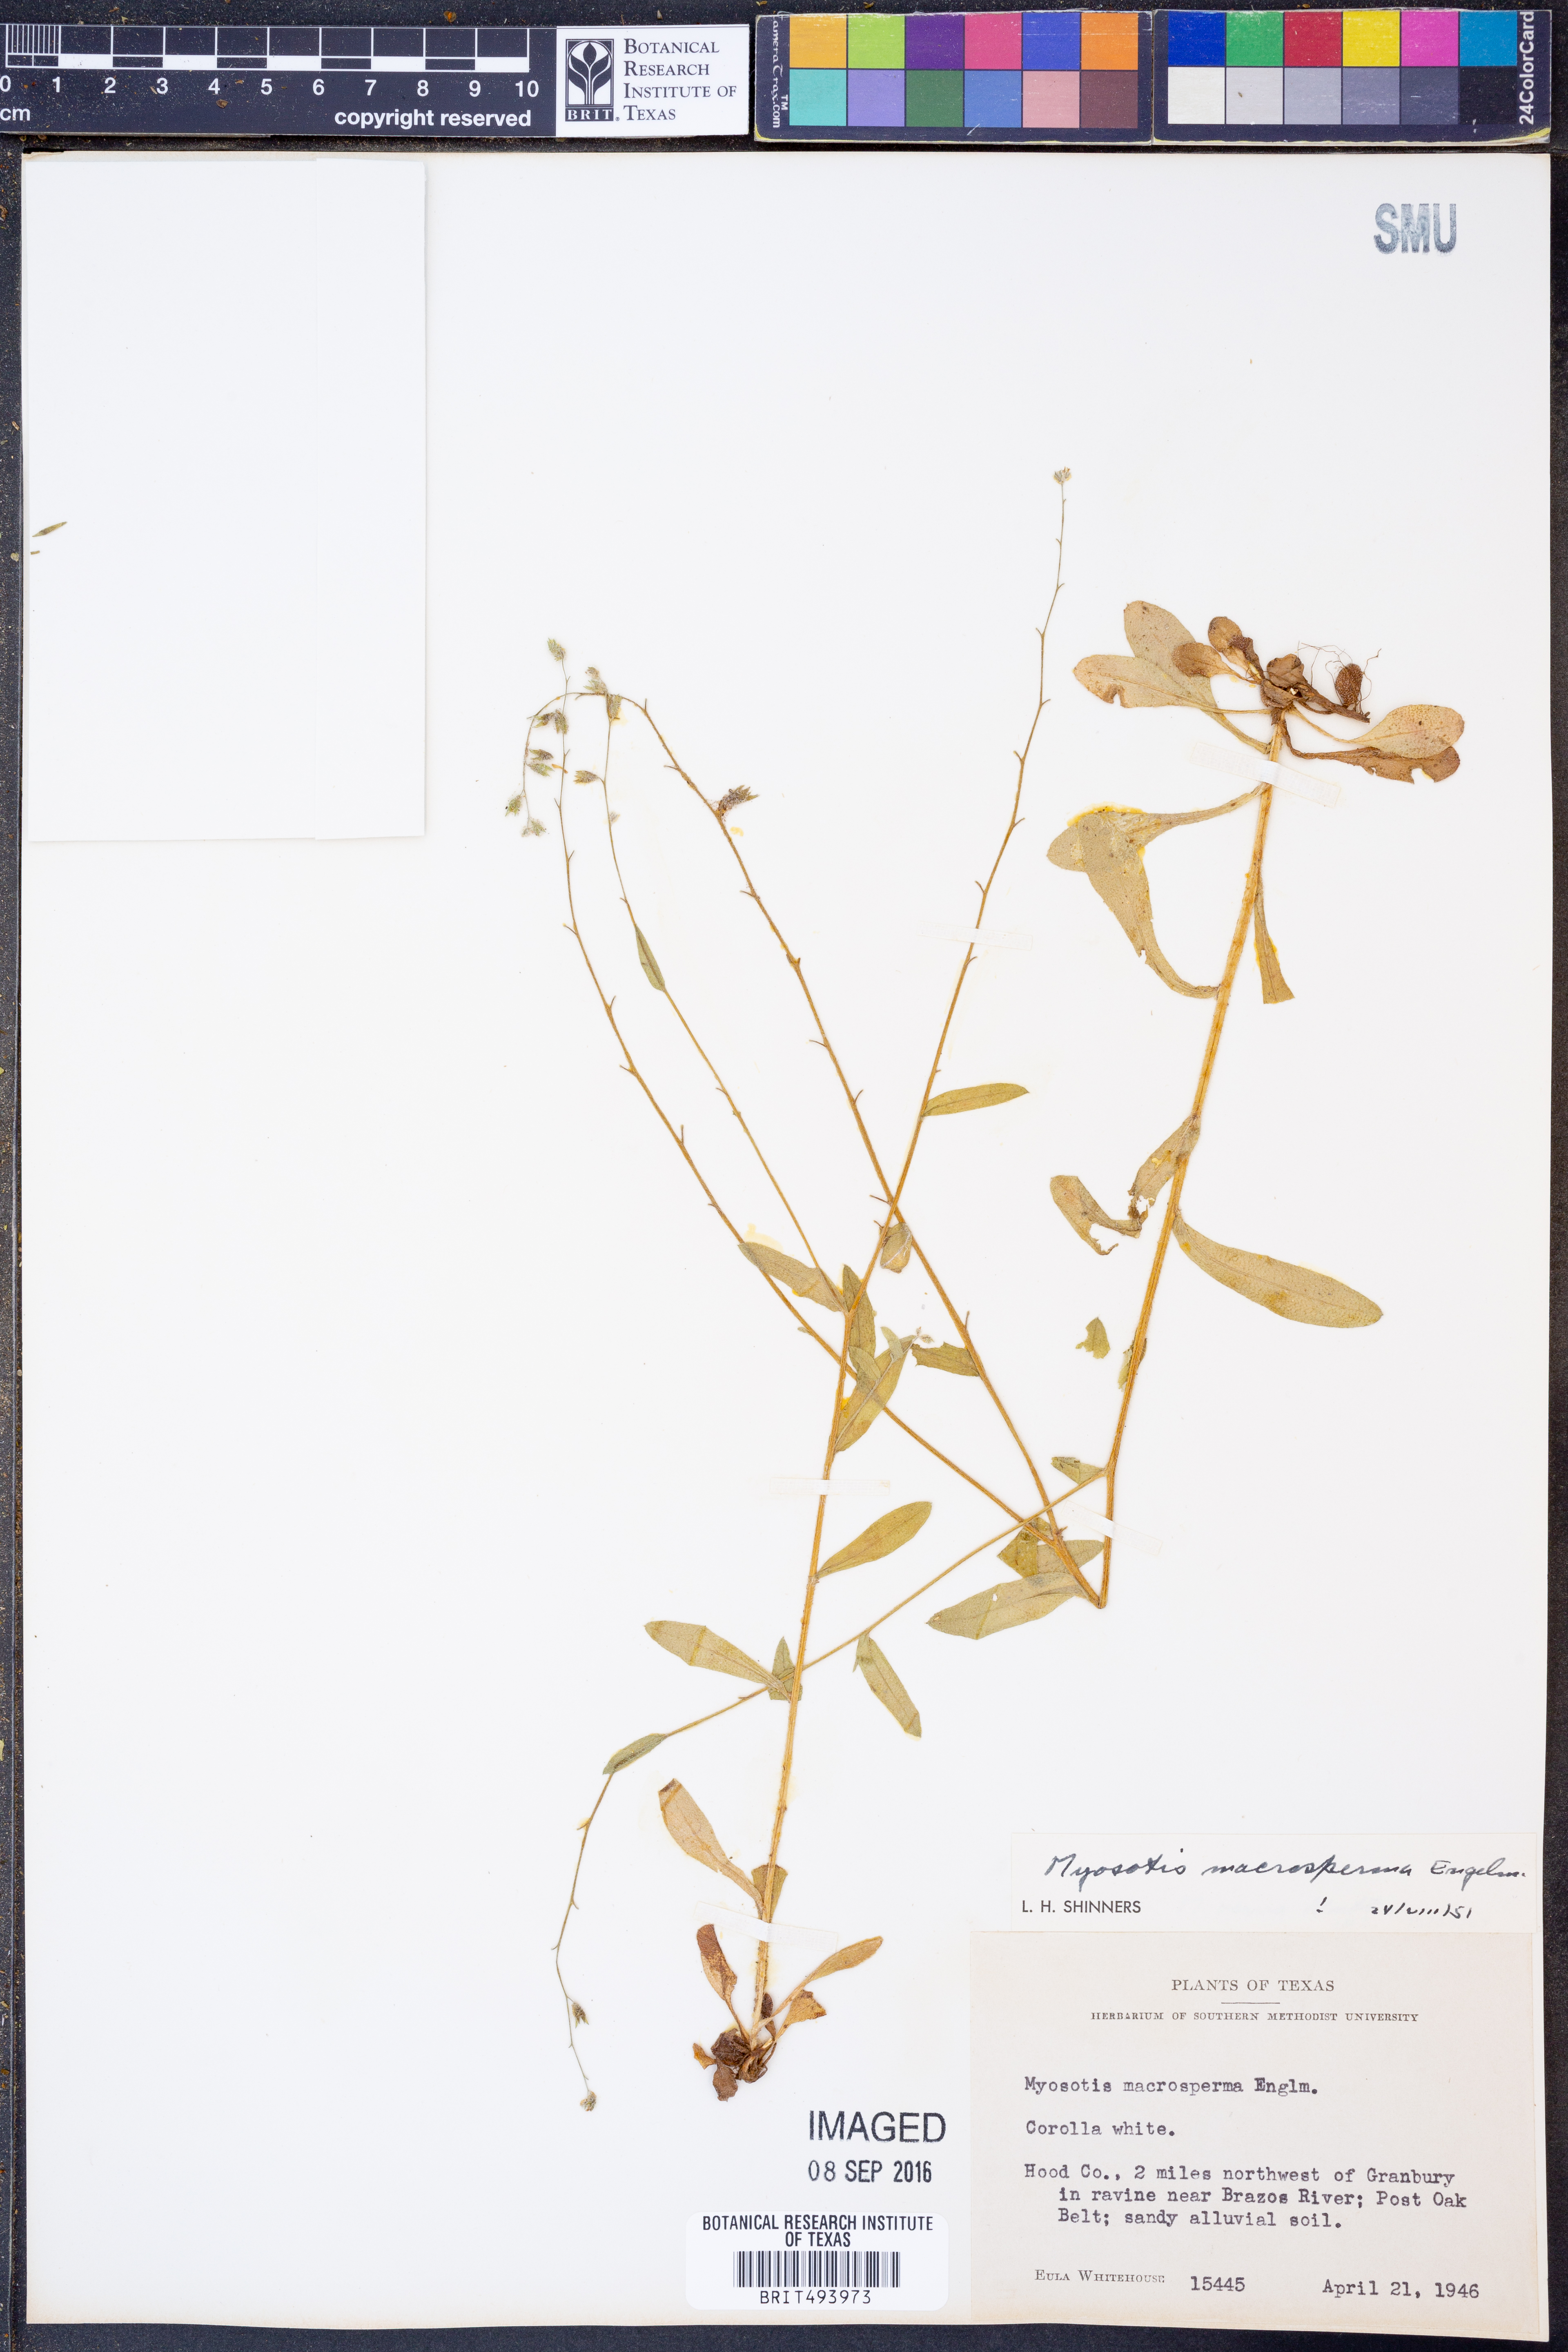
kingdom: Plantae
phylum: Tracheophyta
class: Magnoliopsida
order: Boraginales
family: Boraginaceae
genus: Myosotis
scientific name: Myosotis macrosperma
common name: Large-seed forget-me-not
